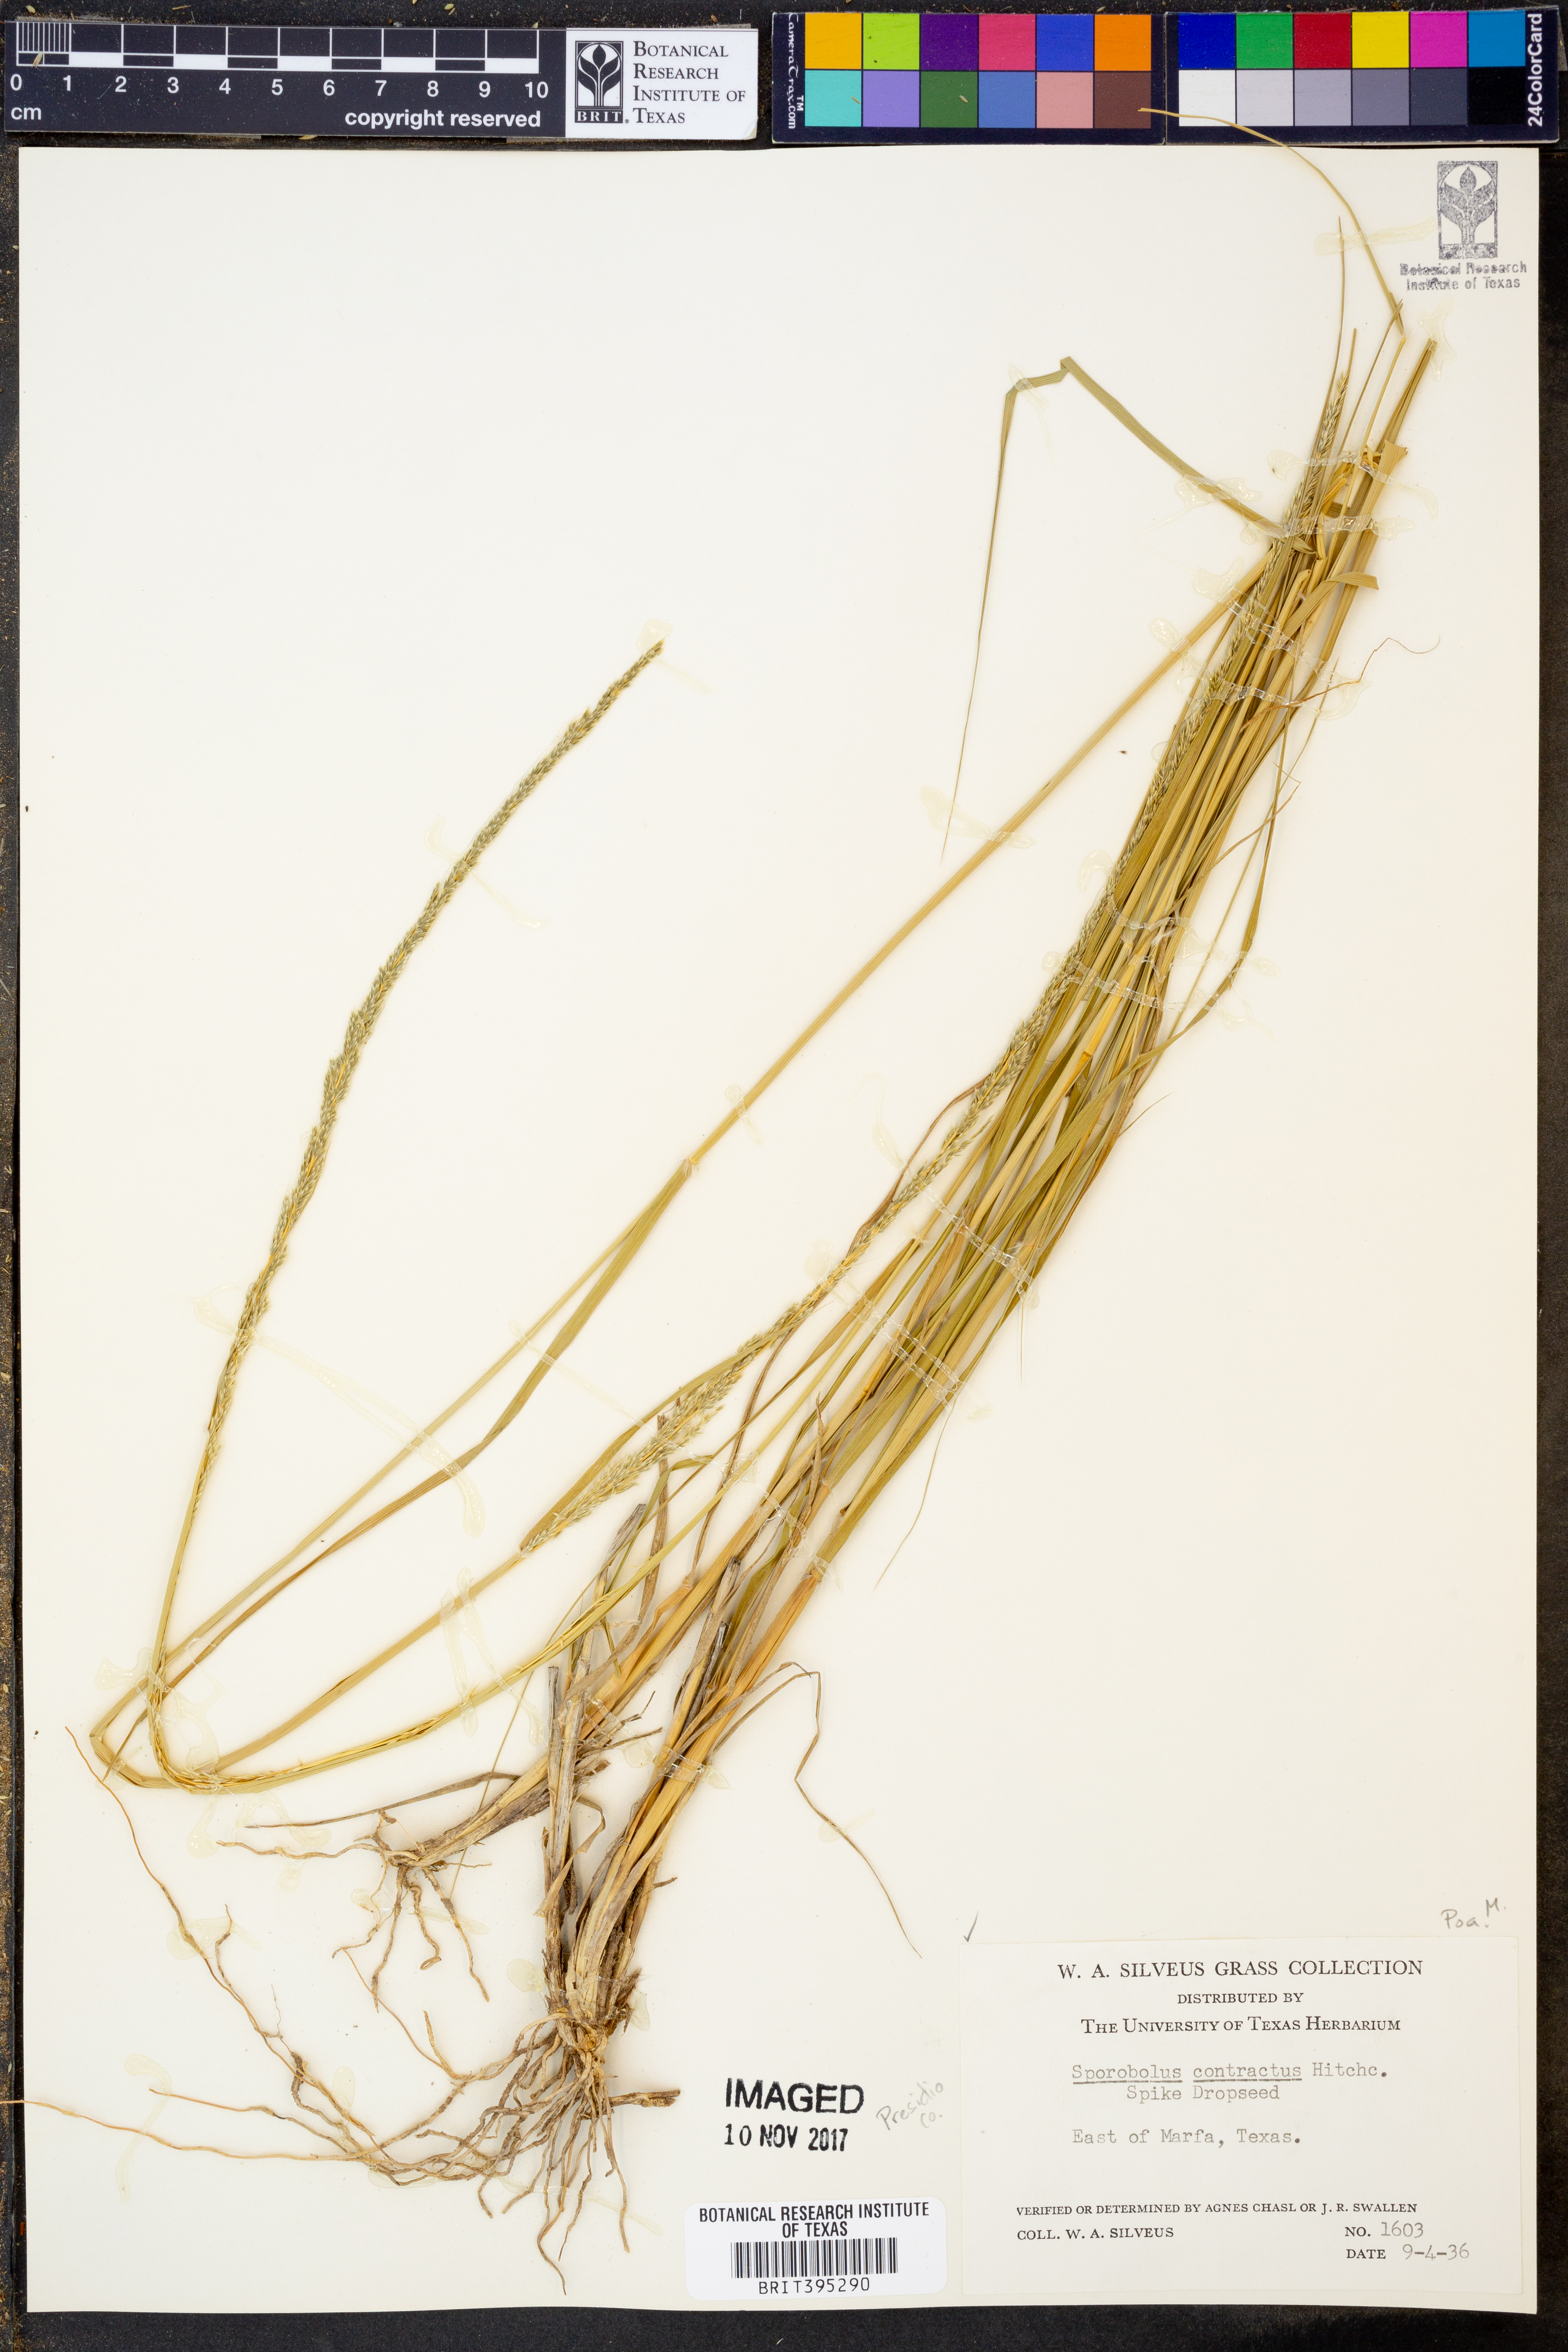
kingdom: Plantae
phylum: Tracheophyta
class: Liliopsida
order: Poales
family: Poaceae
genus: Sporobolus
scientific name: Sporobolus contractus
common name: Spike dropseed
